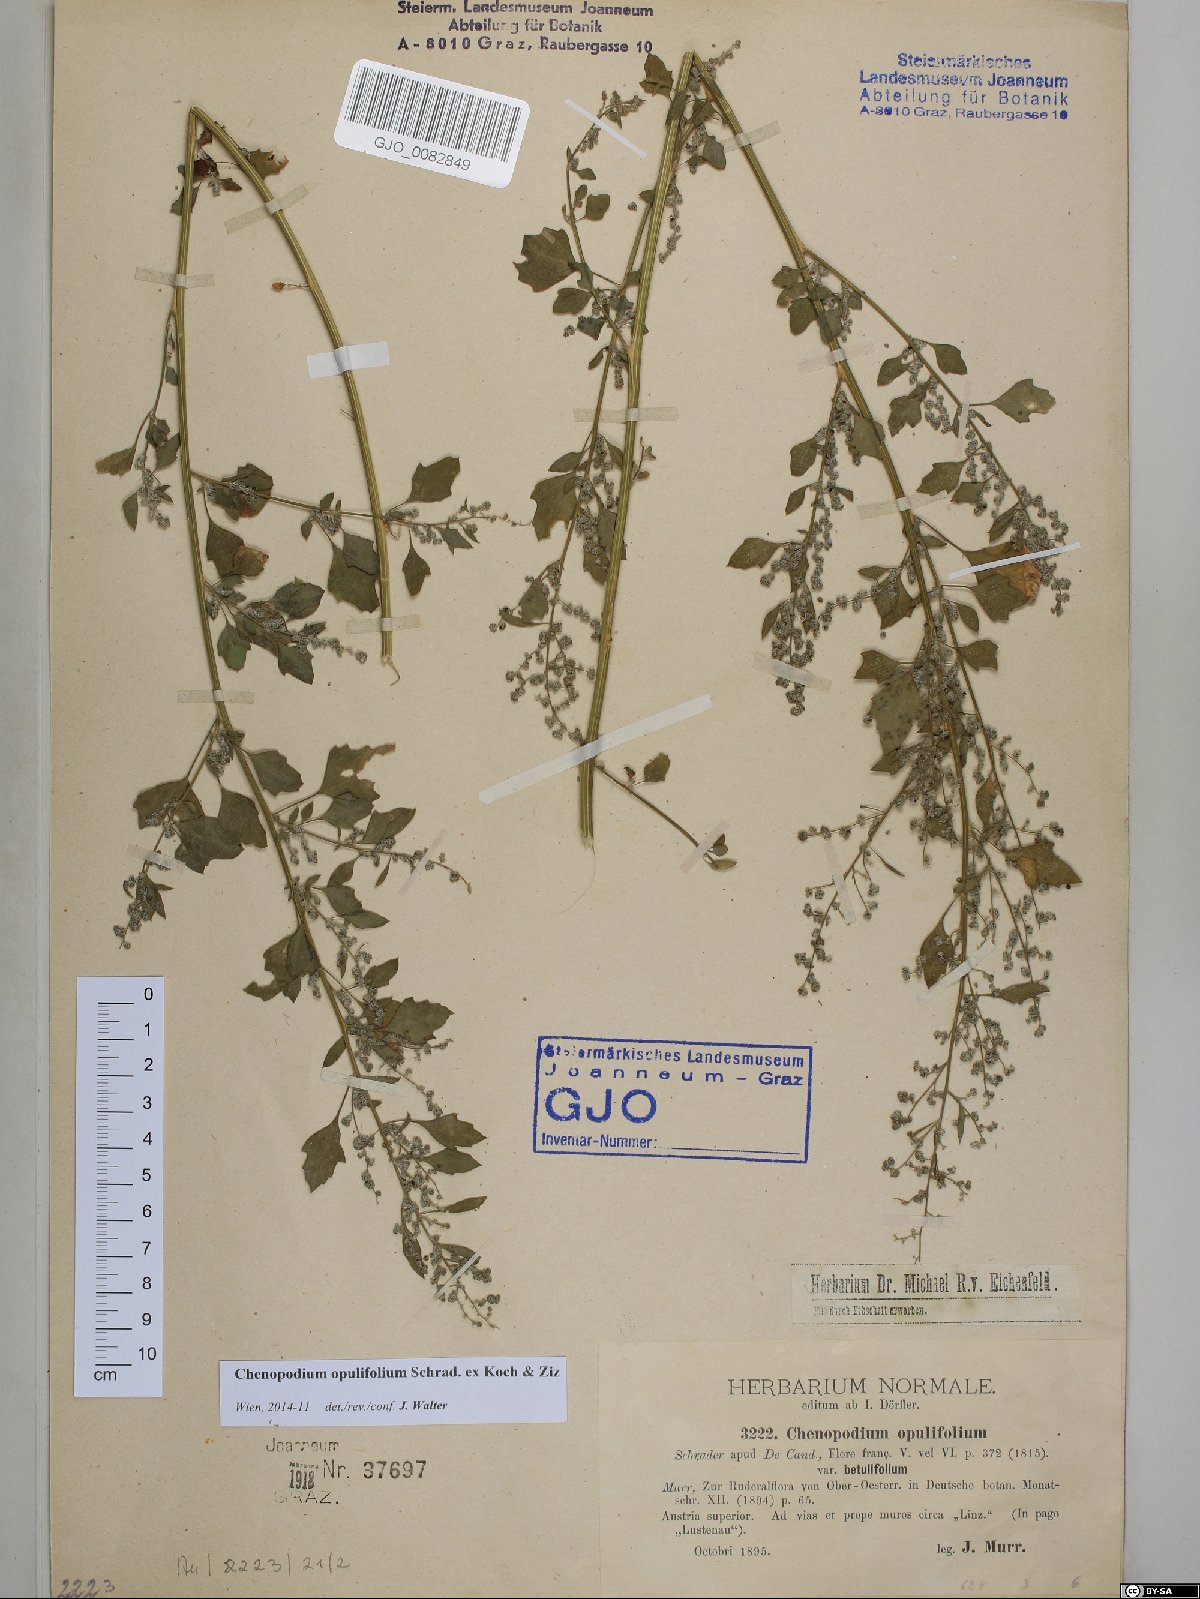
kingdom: Plantae
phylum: Tracheophyta
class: Magnoliopsida
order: Caryophyllales
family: Amaranthaceae
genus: Chenopodium
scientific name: Chenopodium opulifolium
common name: Grey goosefoot
